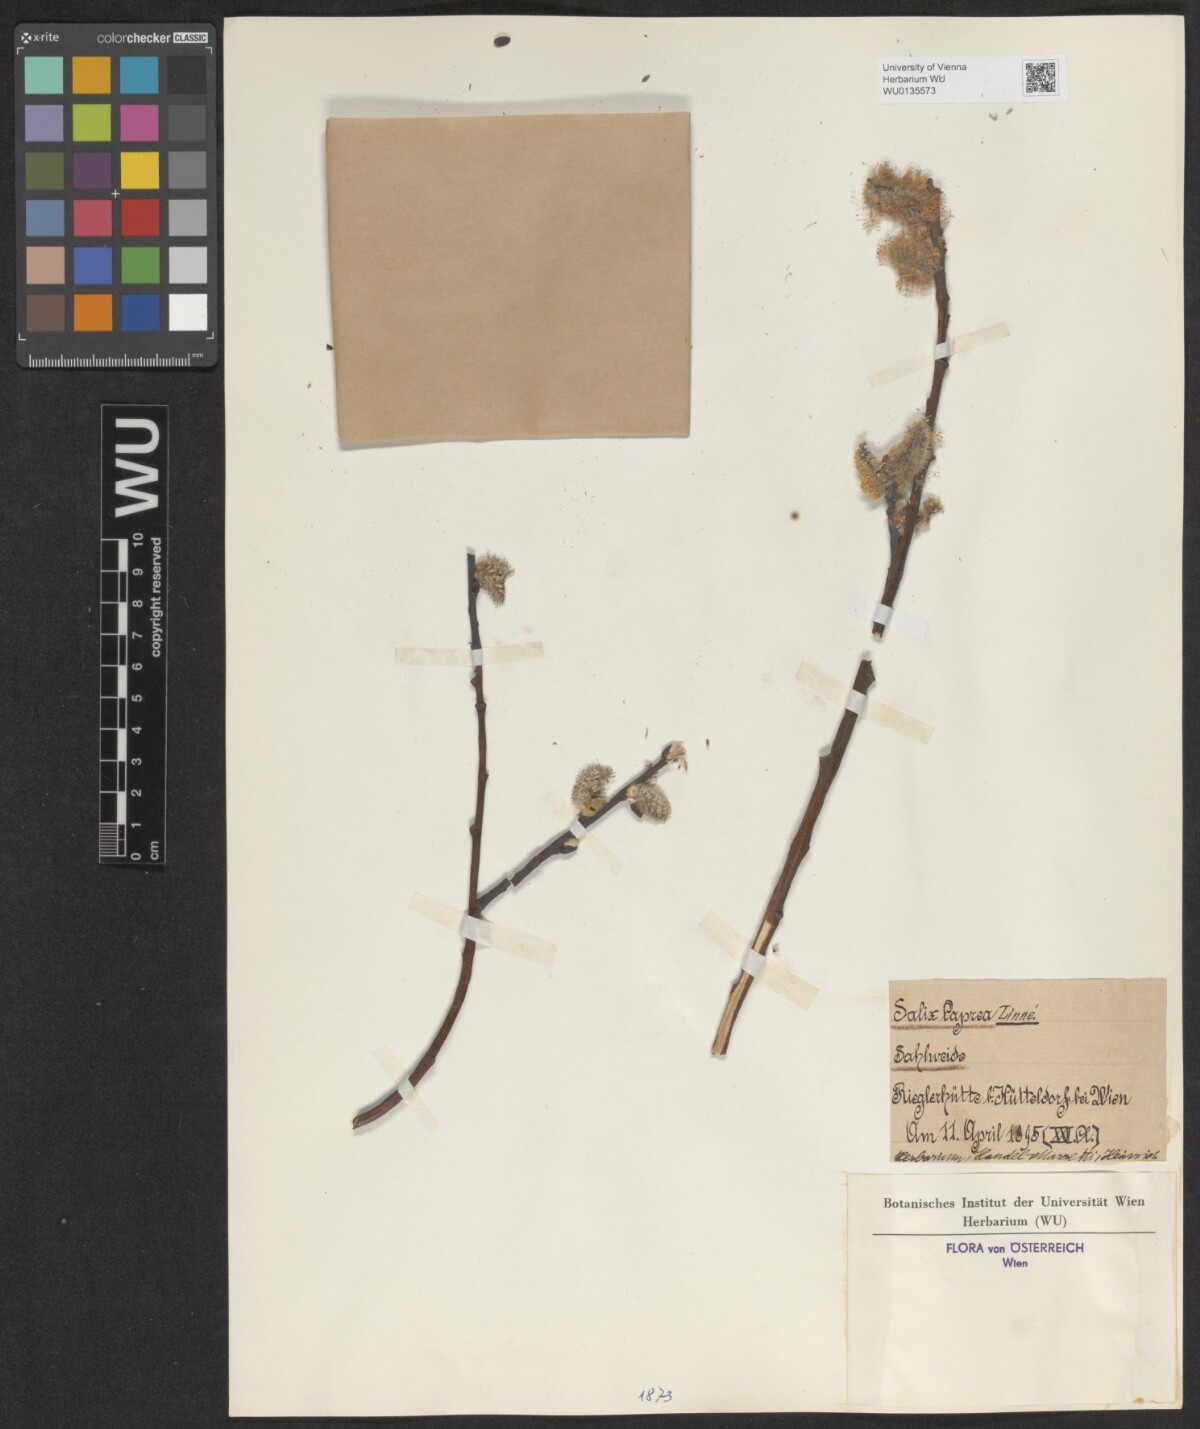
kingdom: Plantae
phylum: Tracheophyta
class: Magnoliopsida
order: Malpighiales
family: Salicaceae
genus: Salix
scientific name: Salix caprea
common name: Goat willow
